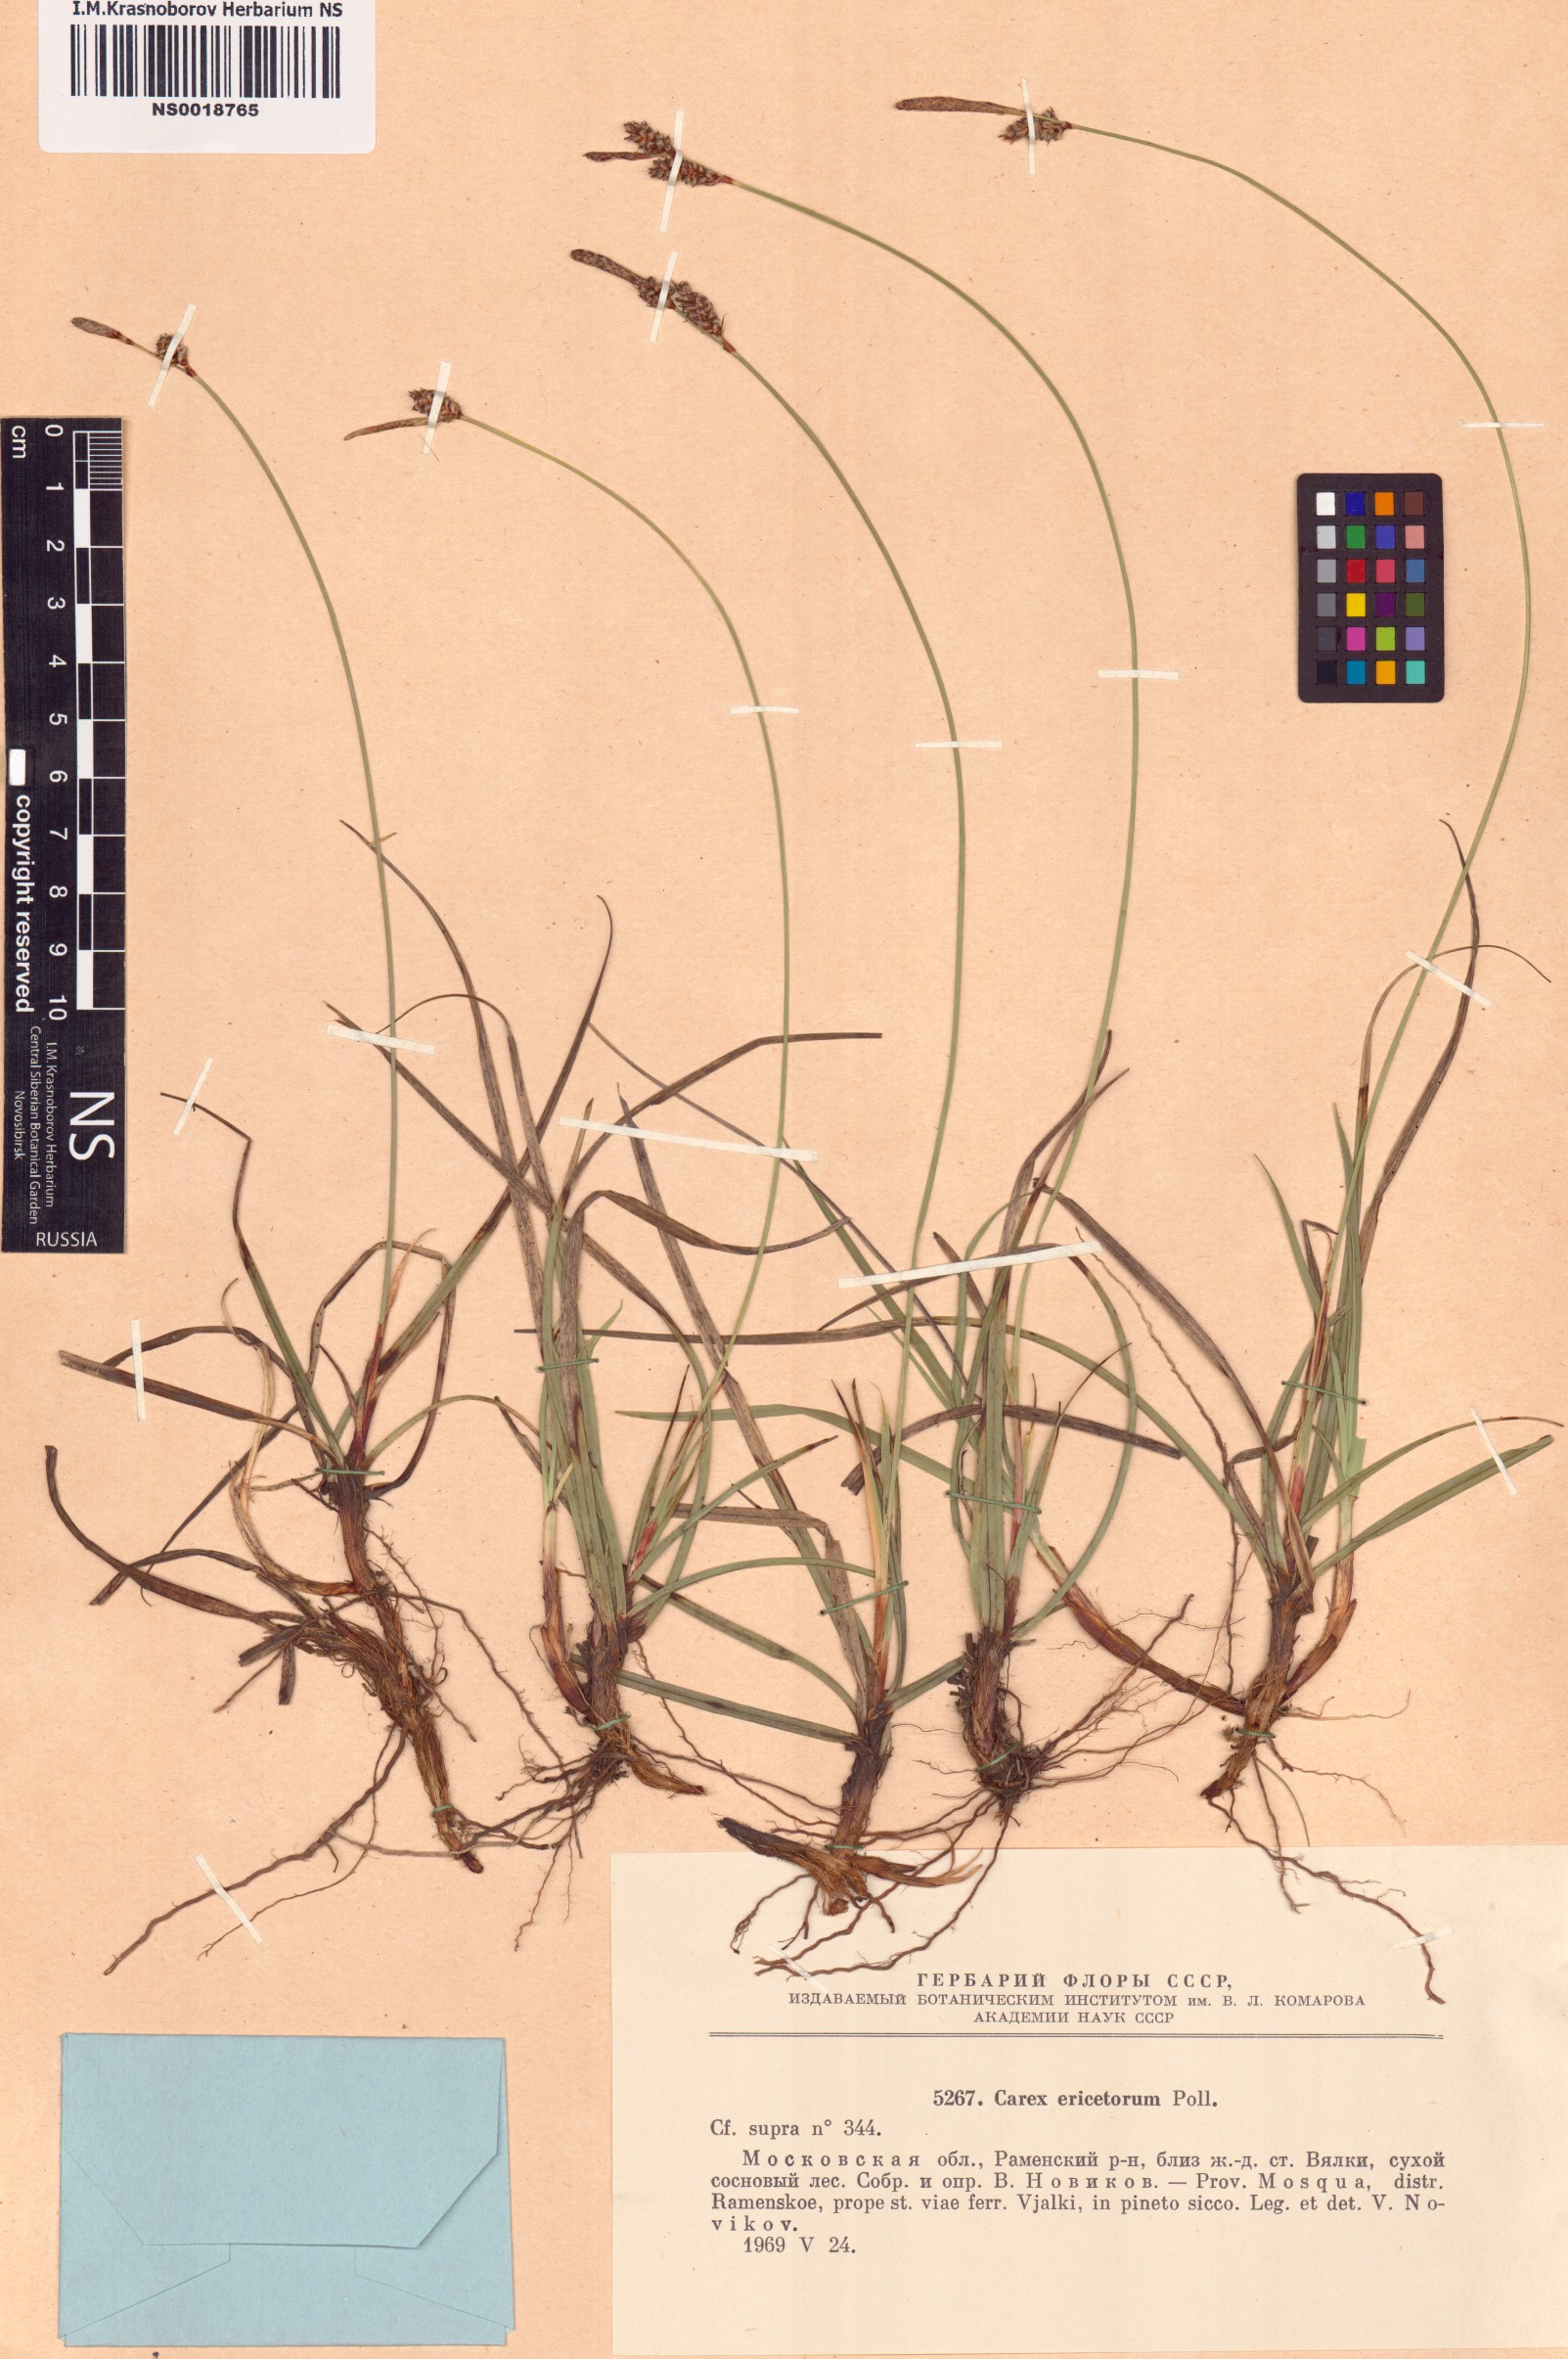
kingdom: Plantae
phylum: Tracheophyta
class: Liliopsida
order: Poales
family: Cyperaceae
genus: Carex
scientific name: Carex ericetorum
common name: Rare spring-sedge
